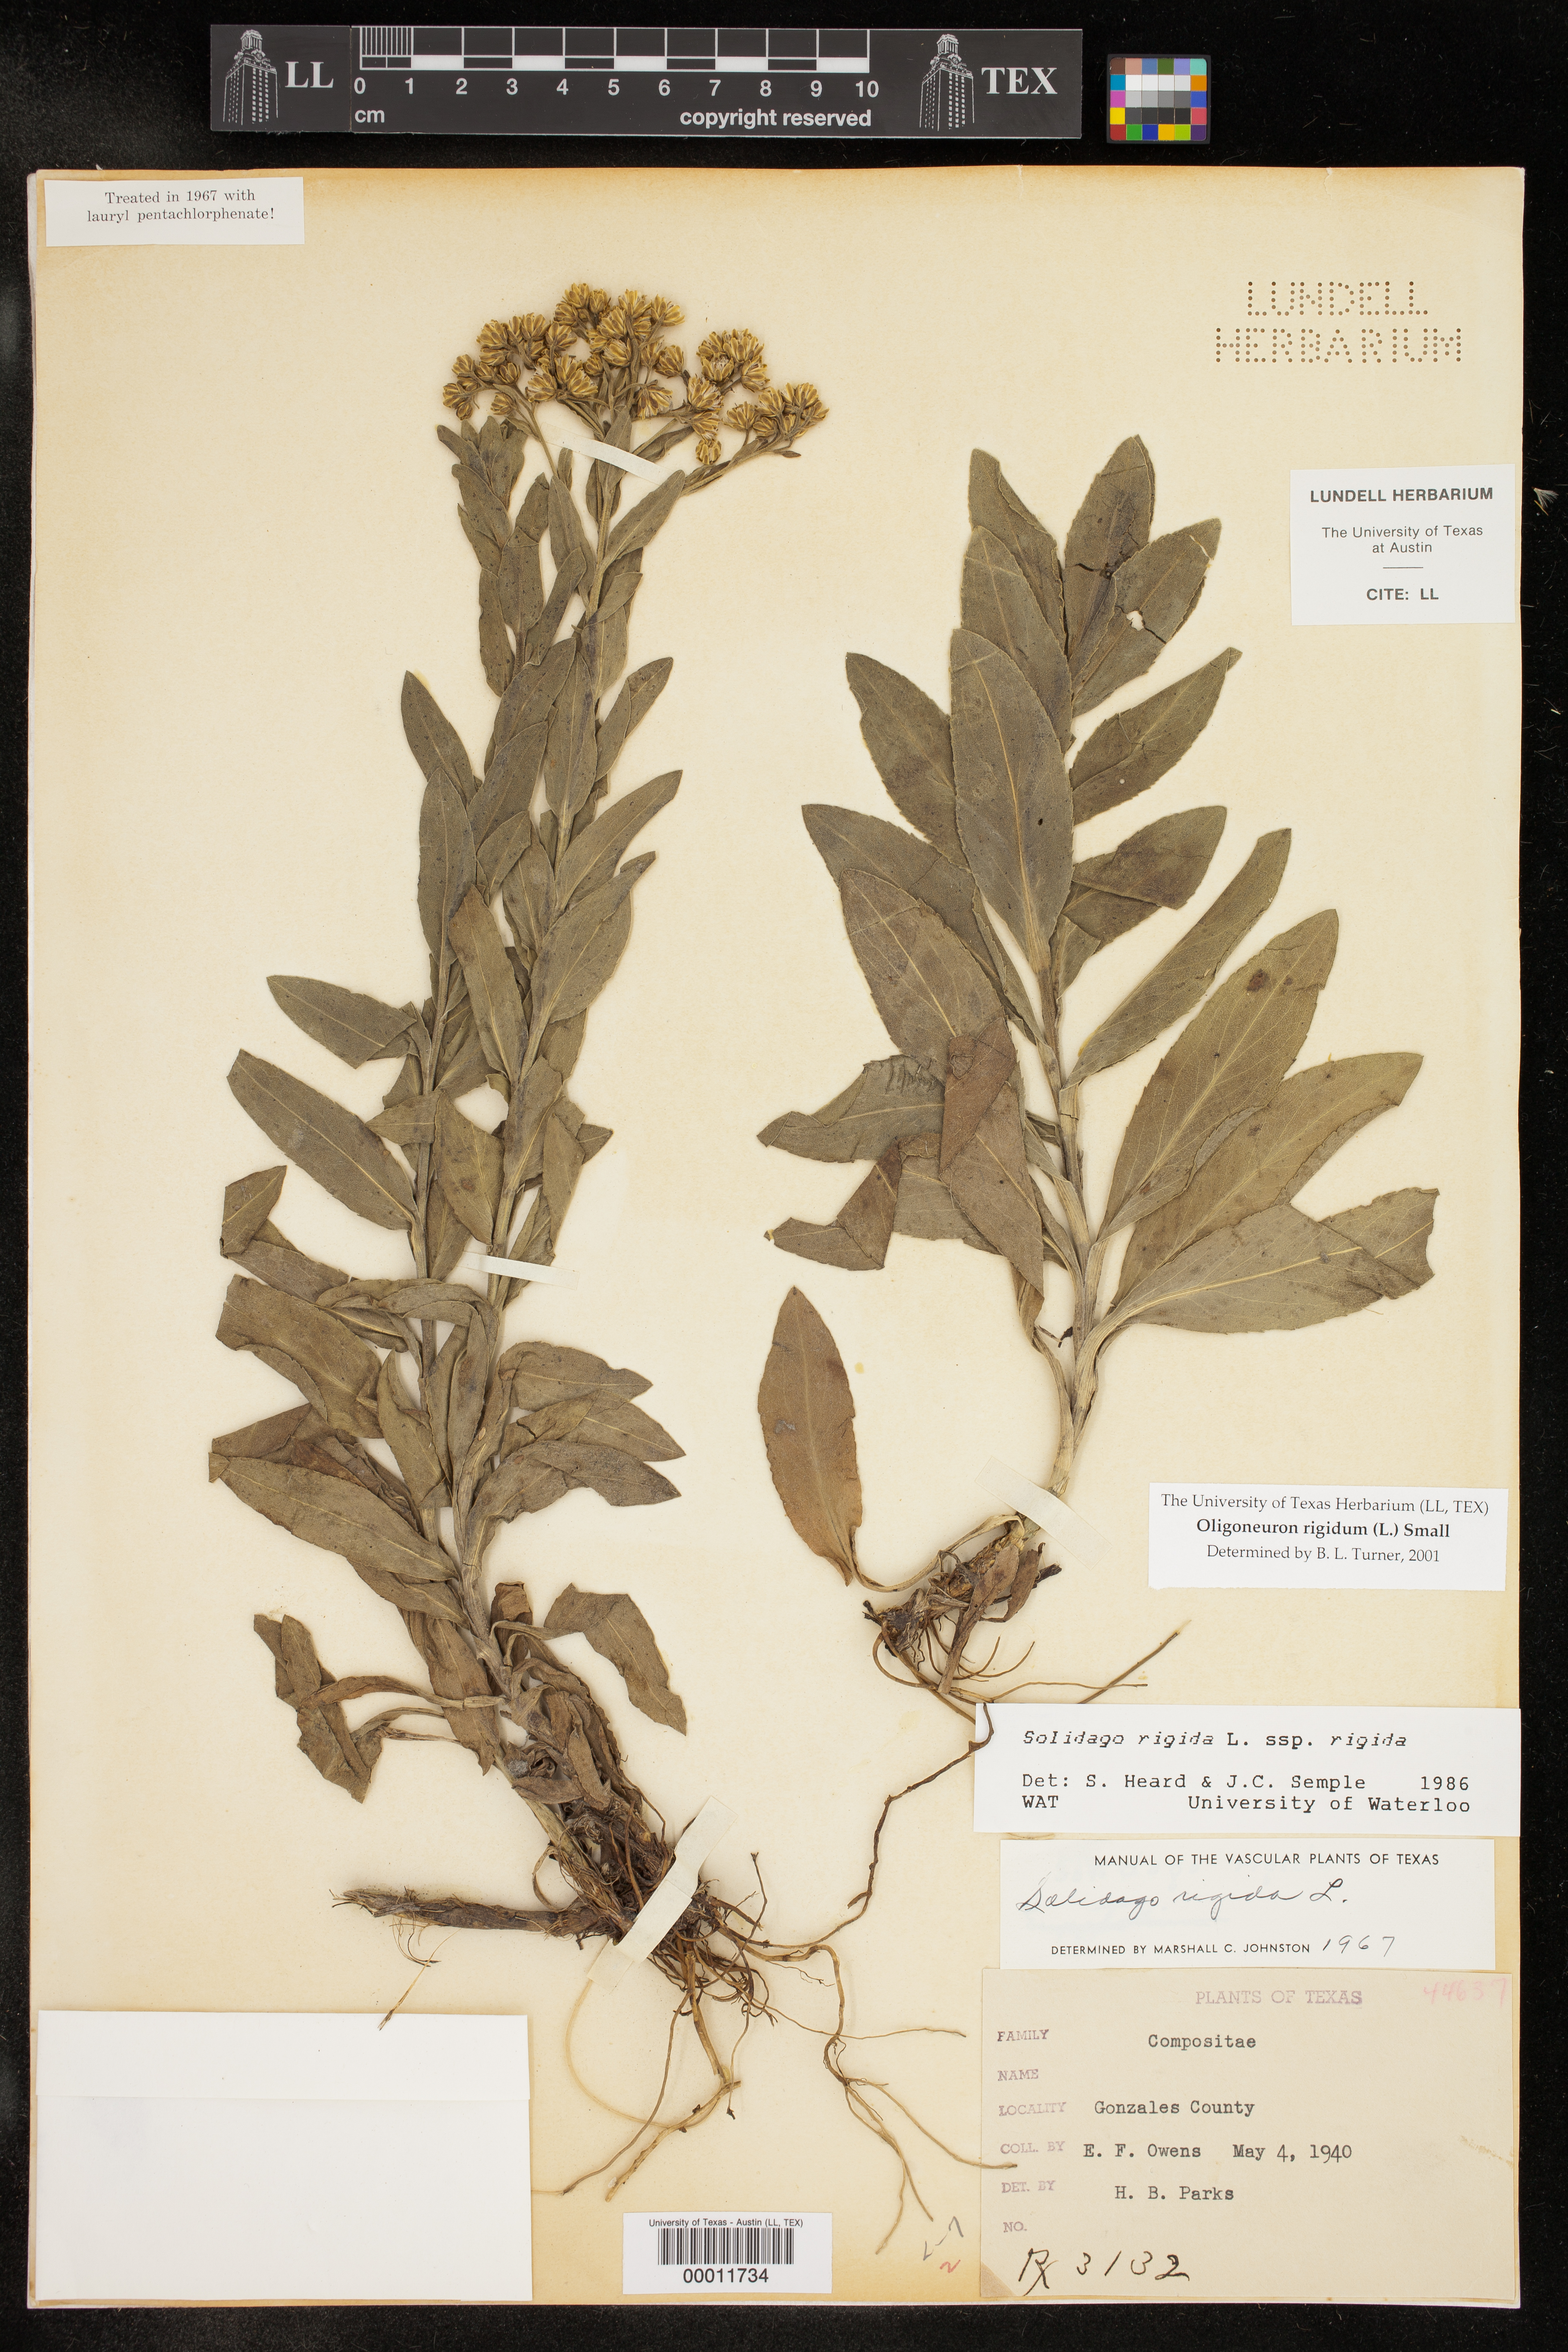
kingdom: Plantae
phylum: Tracheophyta
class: Magnoliopsida
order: Asterales
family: Asteraceae
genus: Solidago
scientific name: Solidago rigida
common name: Rigid goldenrod
